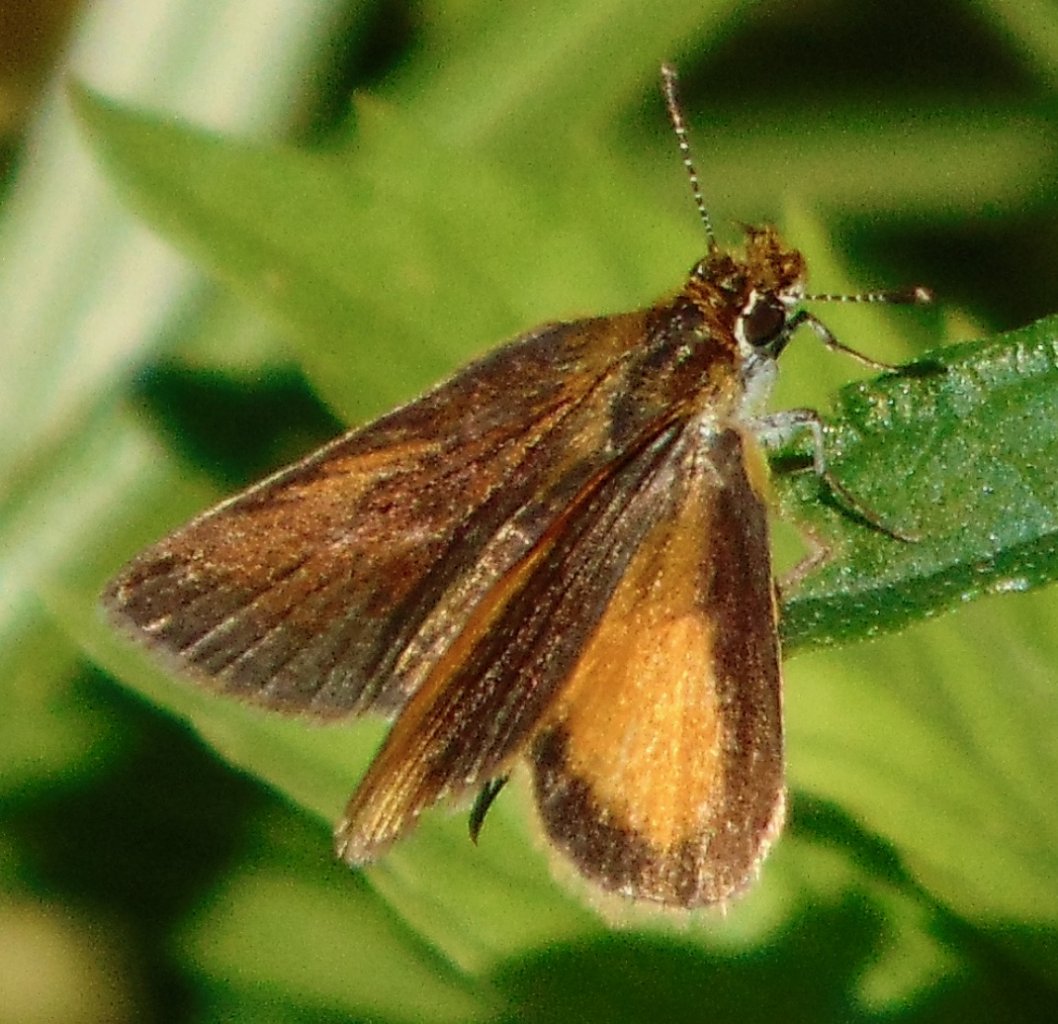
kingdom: Animalia
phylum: Arthropoda
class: Insecta
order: Lepidoptera
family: Hesperiidae
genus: Ancyloxypha
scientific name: Ancyloxypha numitor
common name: Least Skipper
